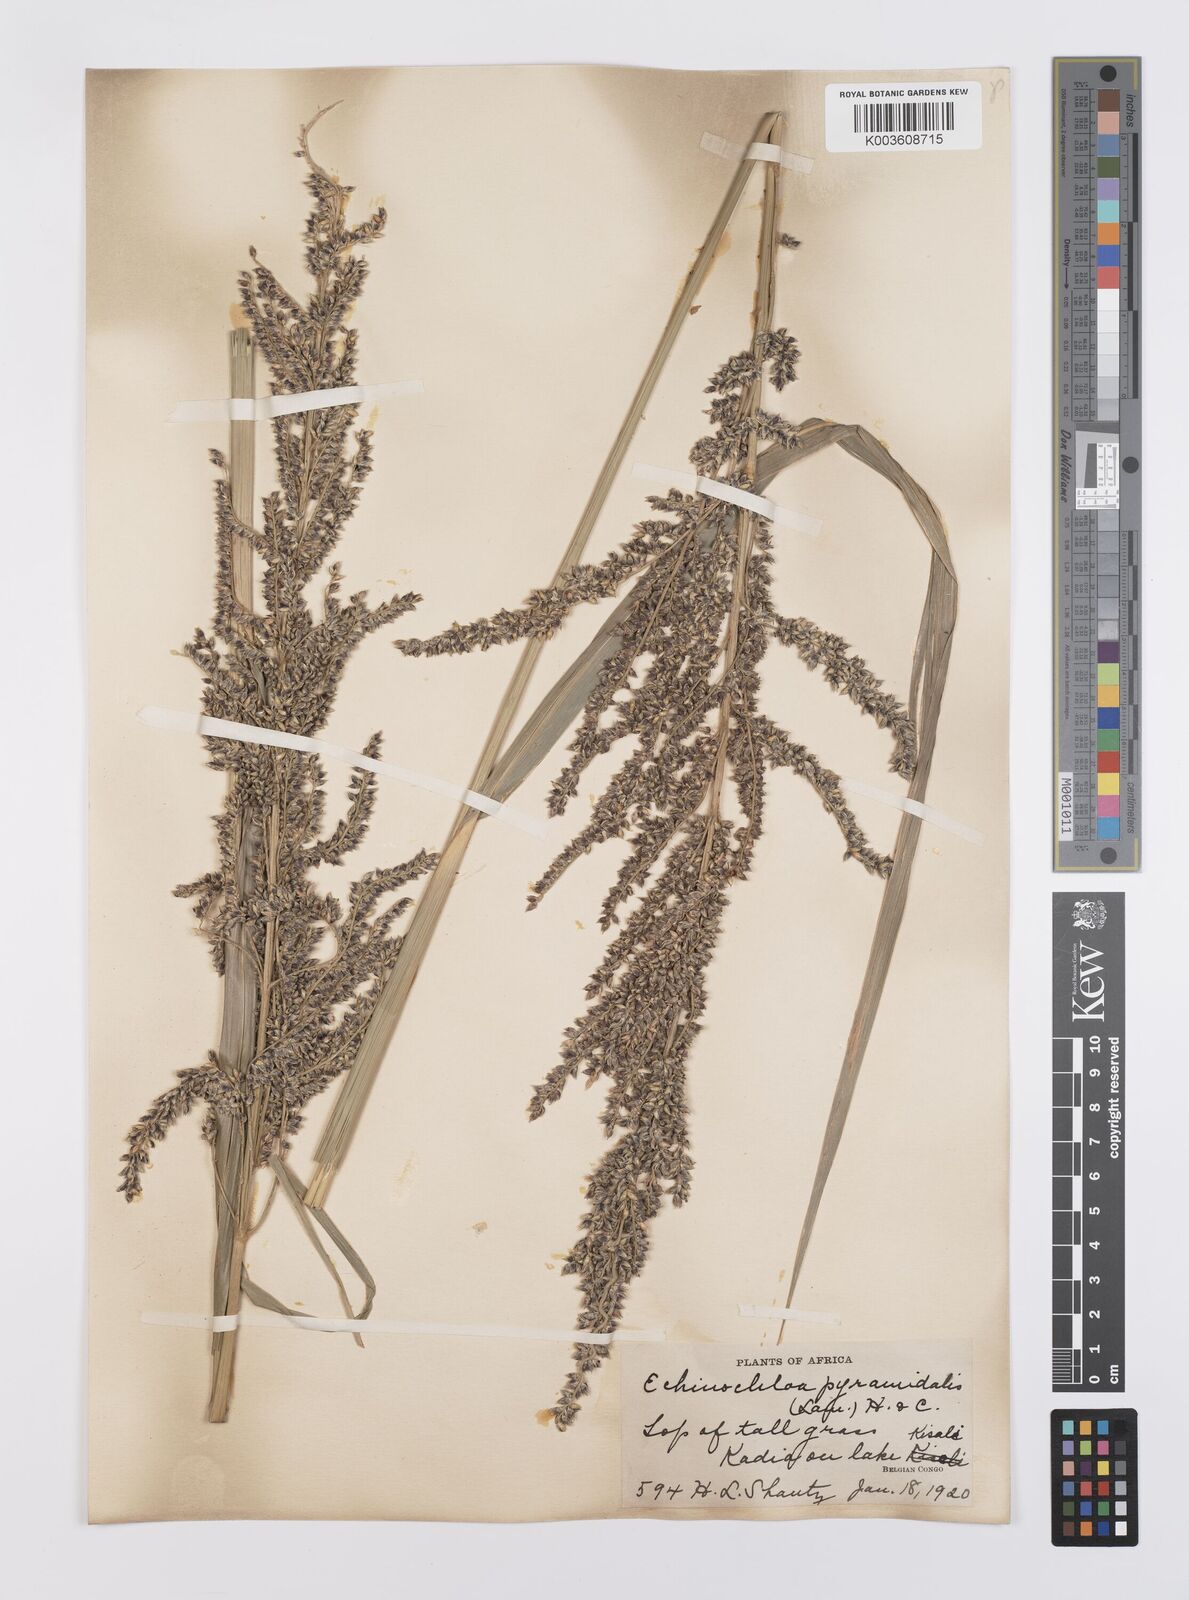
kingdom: Plantae
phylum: Tracheophyta
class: Liliopsida
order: Poales
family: Poaceae
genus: Echinochloa
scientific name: Echinochloa pyramidalis
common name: Antelope grass
